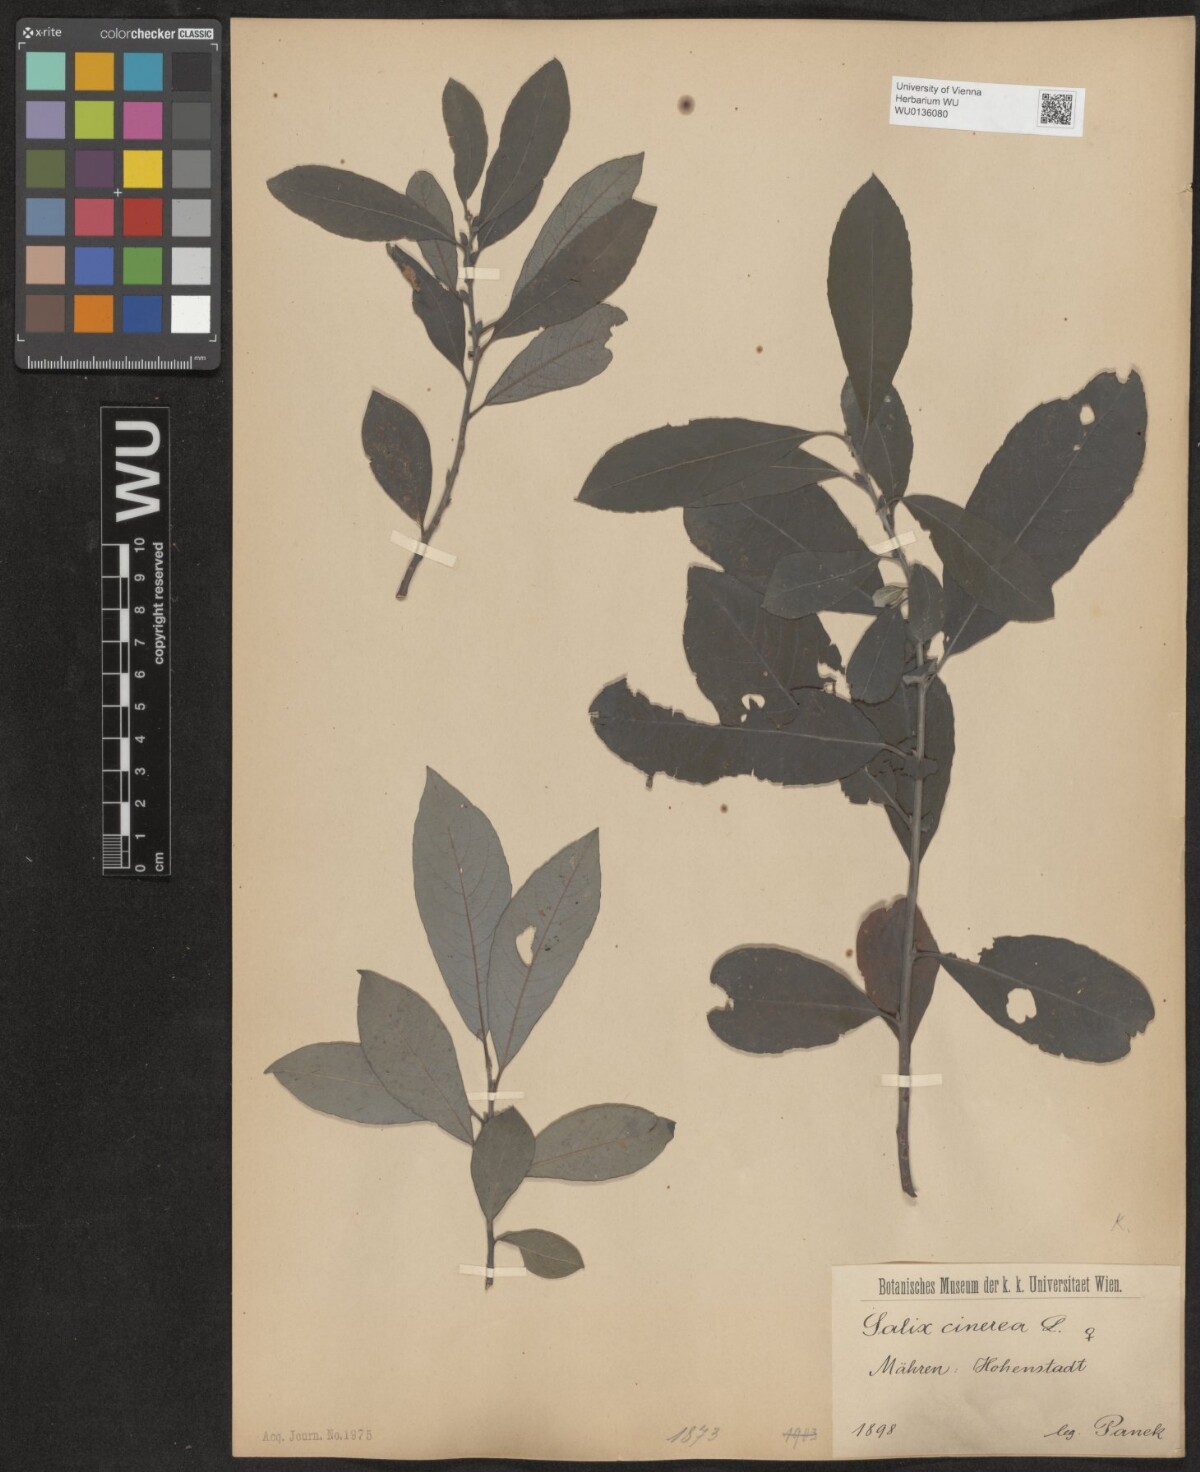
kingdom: Plantae
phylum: Tracheophyta
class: Magnoliopsida
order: Malpighiales
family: Salicaceae
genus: Salix
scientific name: Salix cinerea
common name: Common sallow
